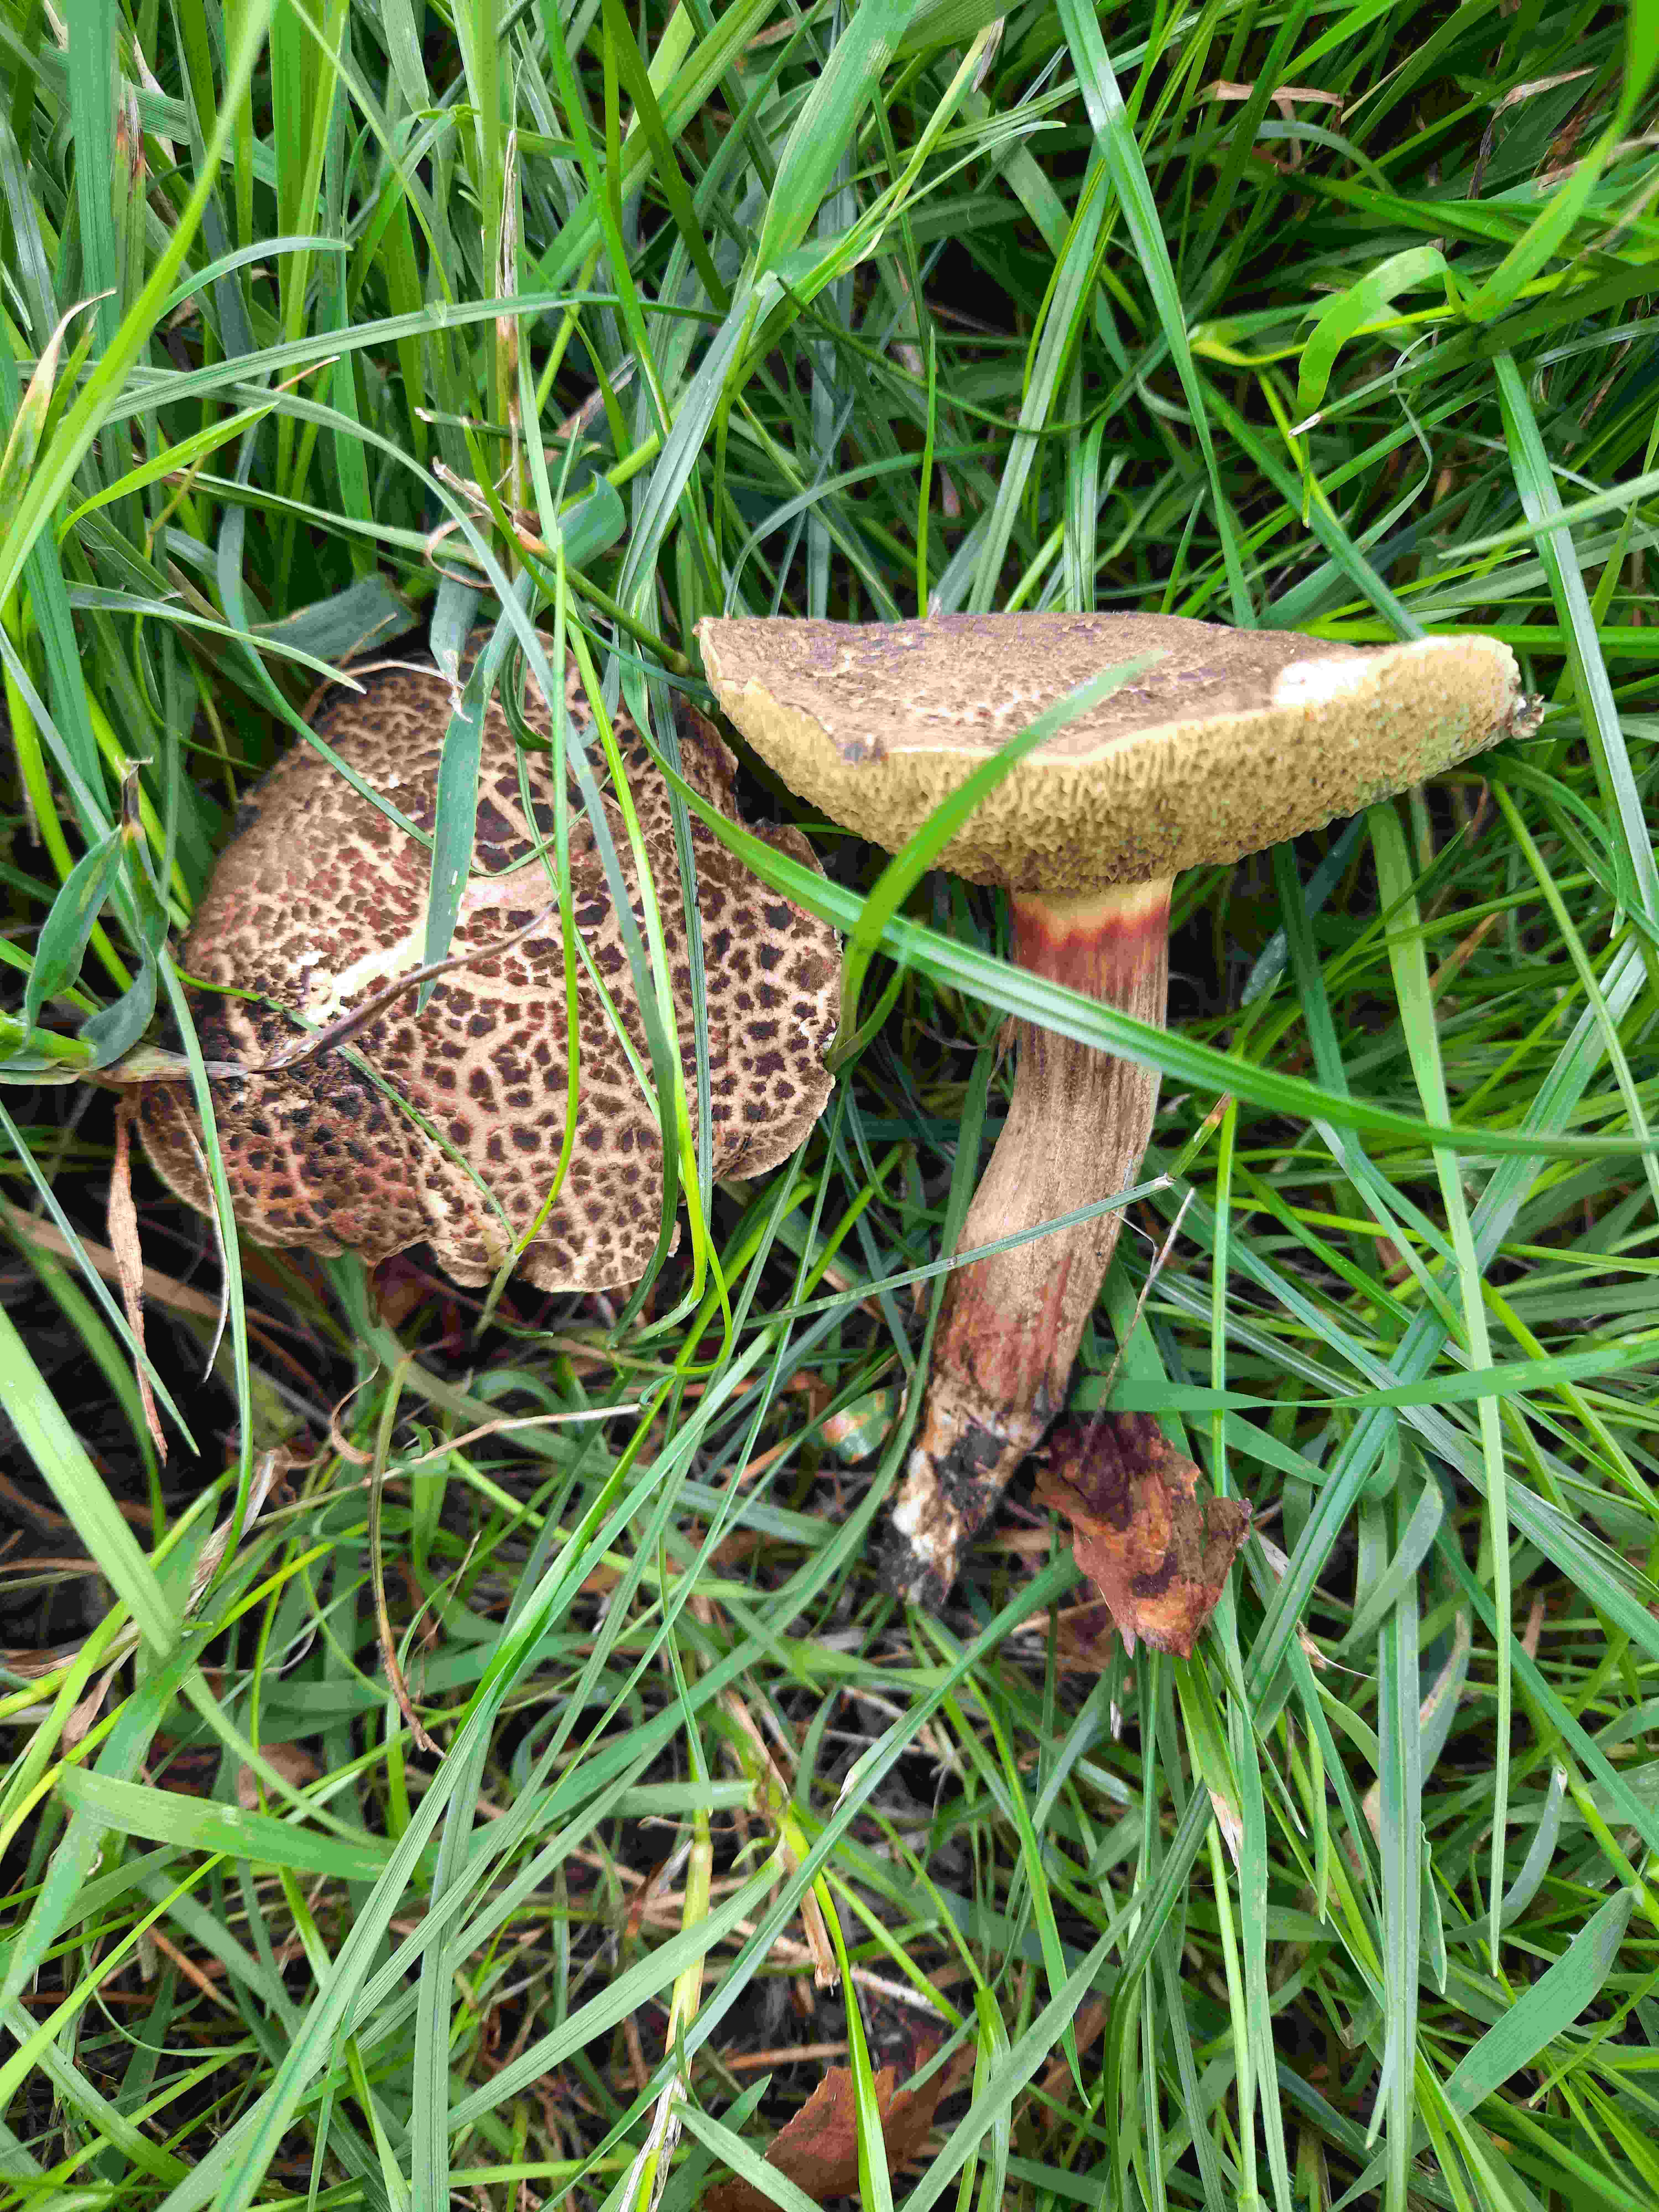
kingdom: Fungi
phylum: Basidiomycota
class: Agaricomycetes
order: Boletales
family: Boletaceae
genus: Xerocomellus
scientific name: Xerocomellus chrysenteron
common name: rødsprukken rørhat
